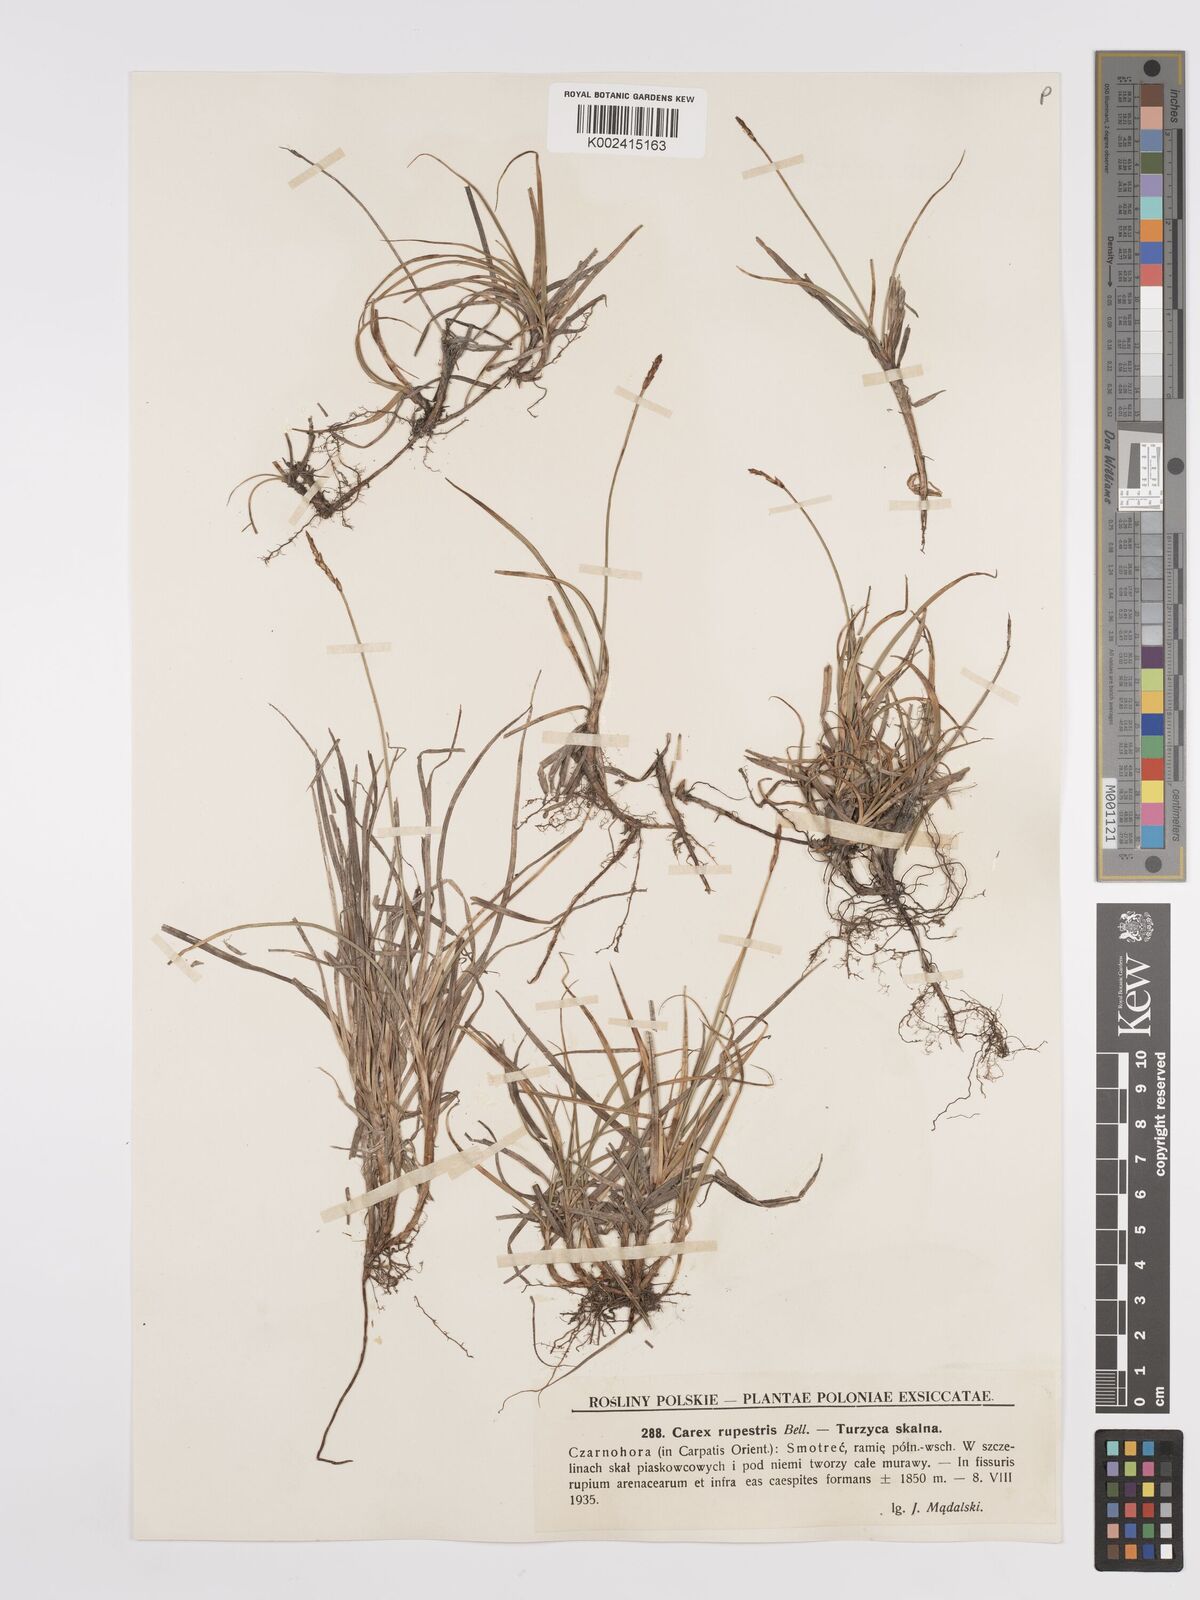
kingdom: Plantae
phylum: Tracheophyta
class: Liliopsida
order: Poales
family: Cyperaceae
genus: Carex
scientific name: Carex rupestris
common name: Rock sedge
